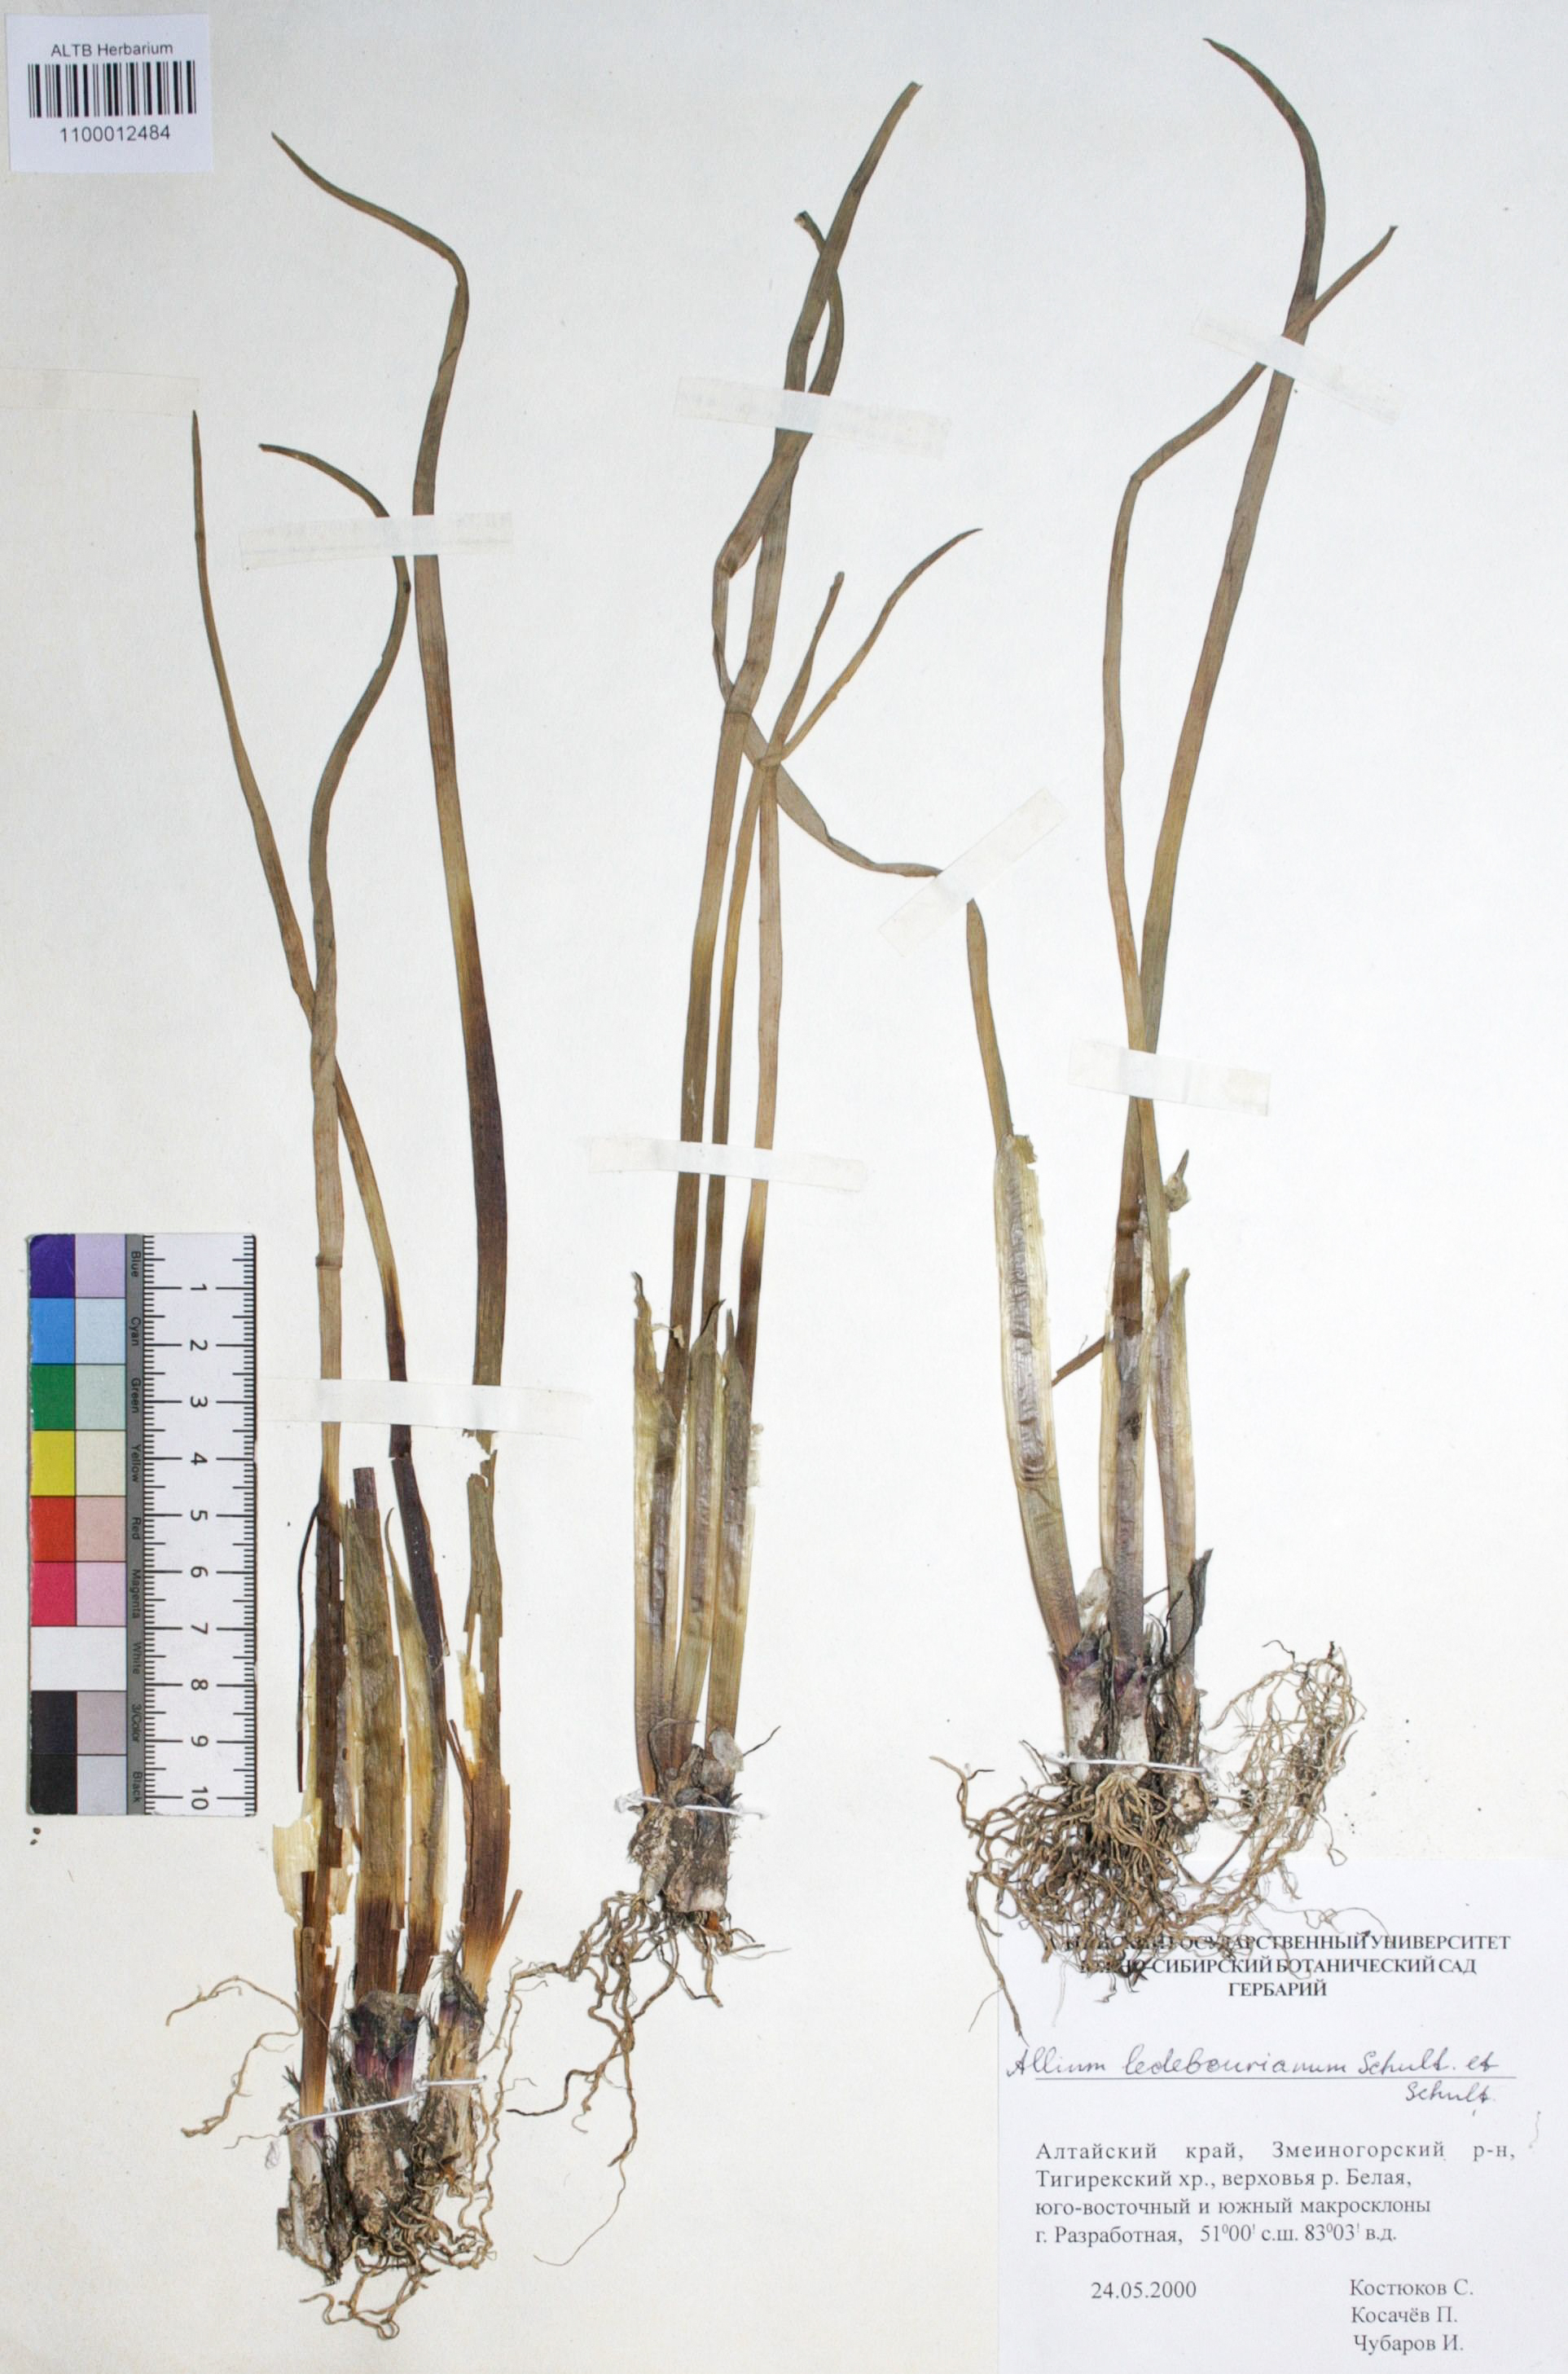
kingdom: Plantae
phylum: Tracheophyta
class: Liliopsida
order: Asparagales
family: Amaryllidaceae
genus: Allium
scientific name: Allium ledebourianum
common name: Ledebour chive
